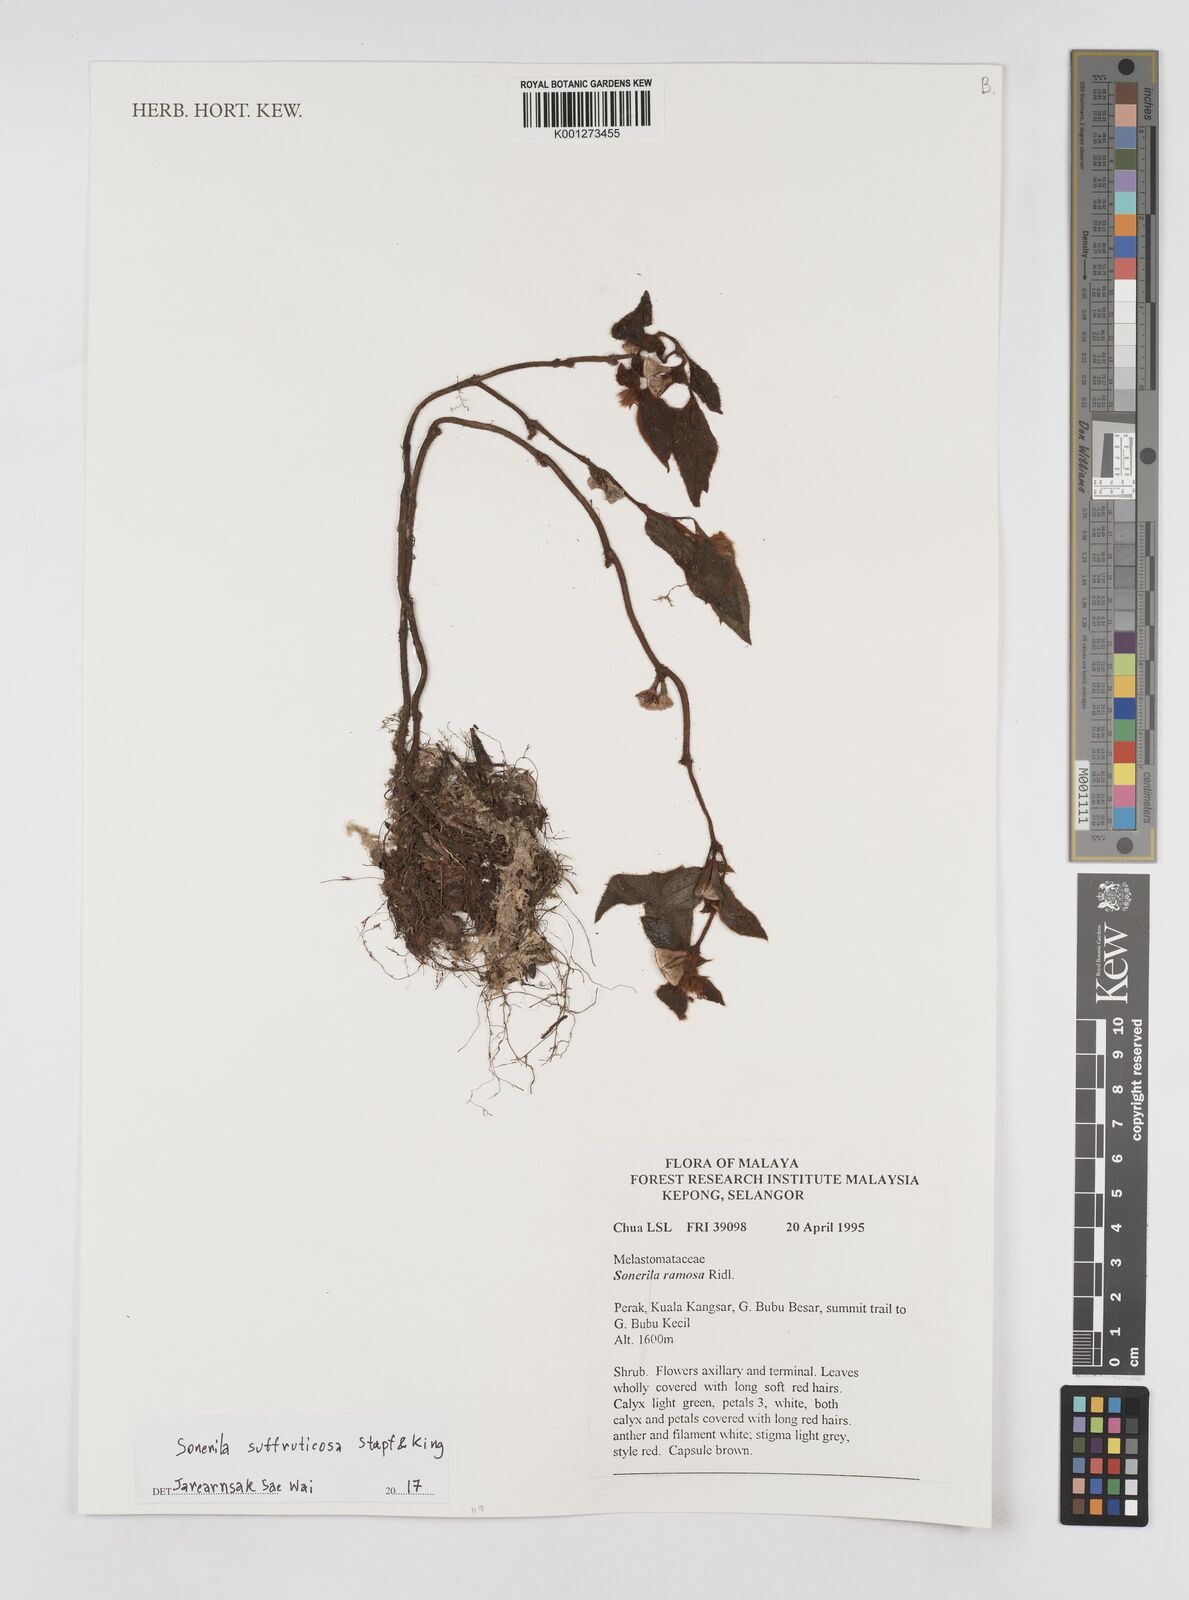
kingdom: Plantae
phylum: Tracheophyta
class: Magnoliopsida
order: Myrtales
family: Melastomataceae
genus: Sonerila
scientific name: Sonerila suffruticosa
